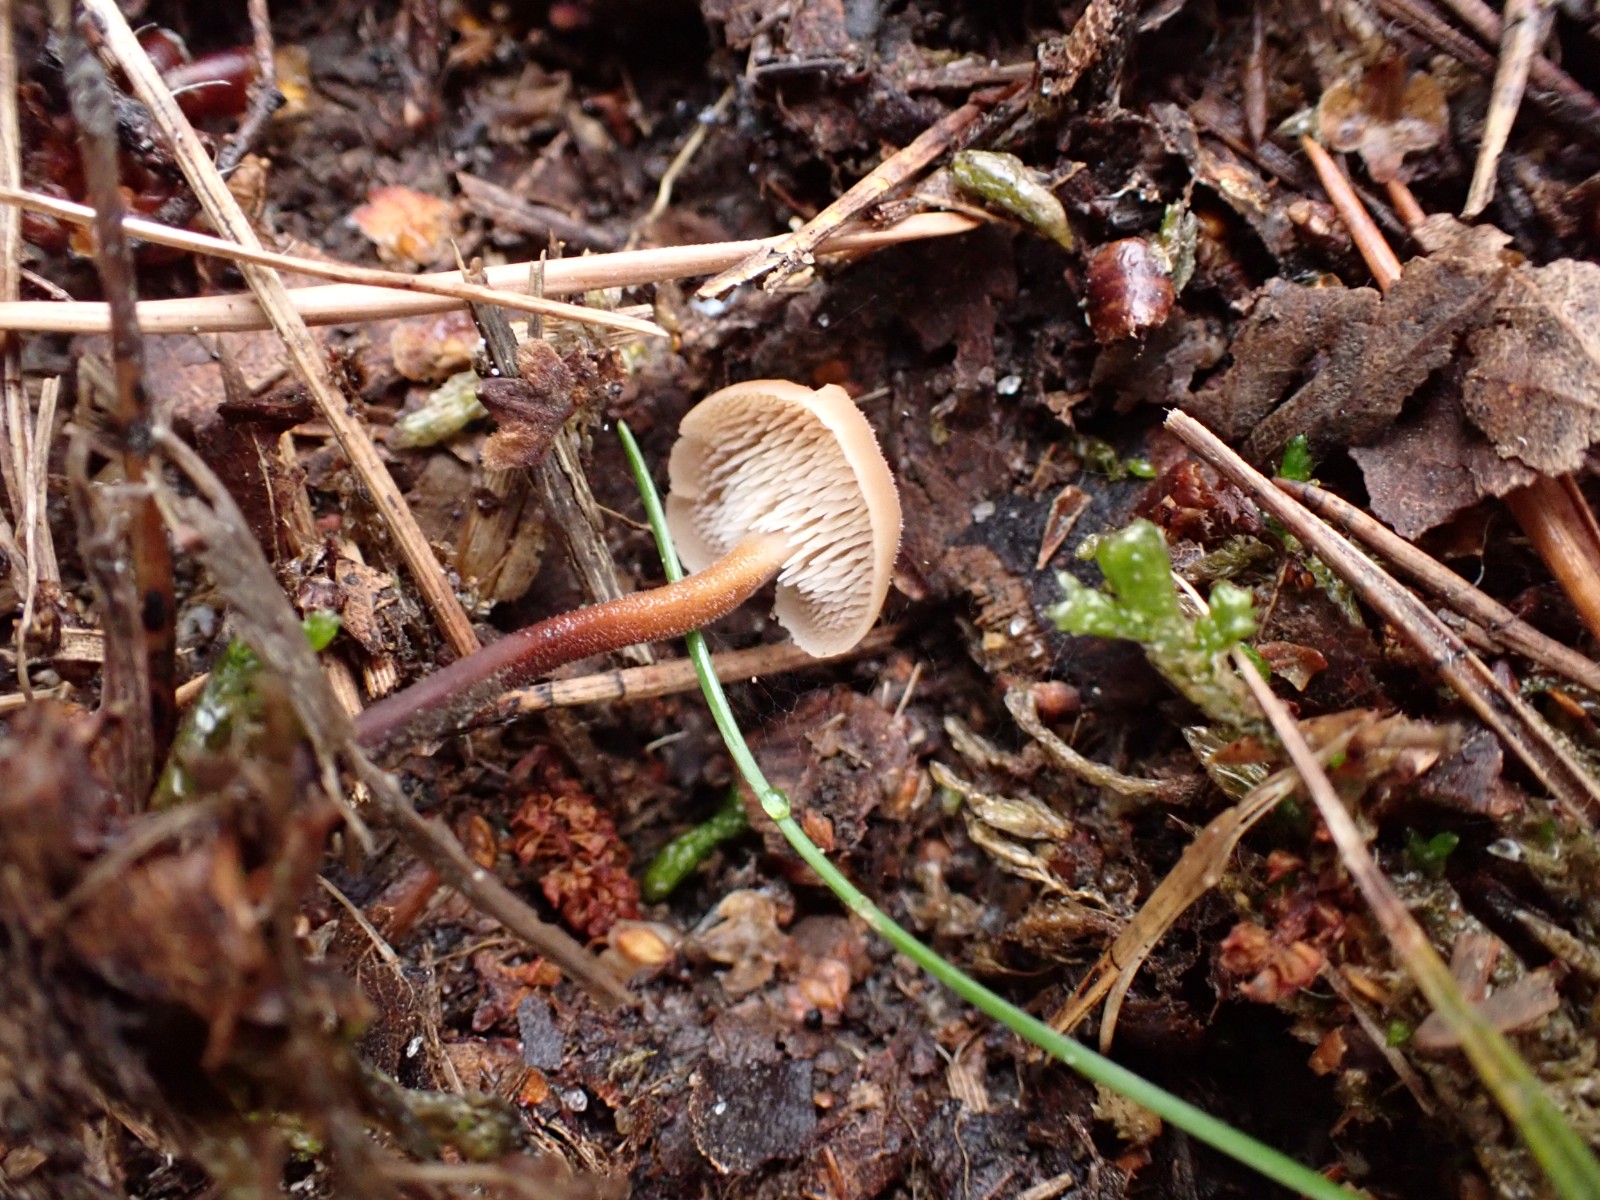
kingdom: Fungi
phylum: Basidiomycota
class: Agaricomycetes
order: Russulales
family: Auriscalpiaceae
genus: Auriscalpium
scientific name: Auriscalpium vulgare
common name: koglepigsvamp
